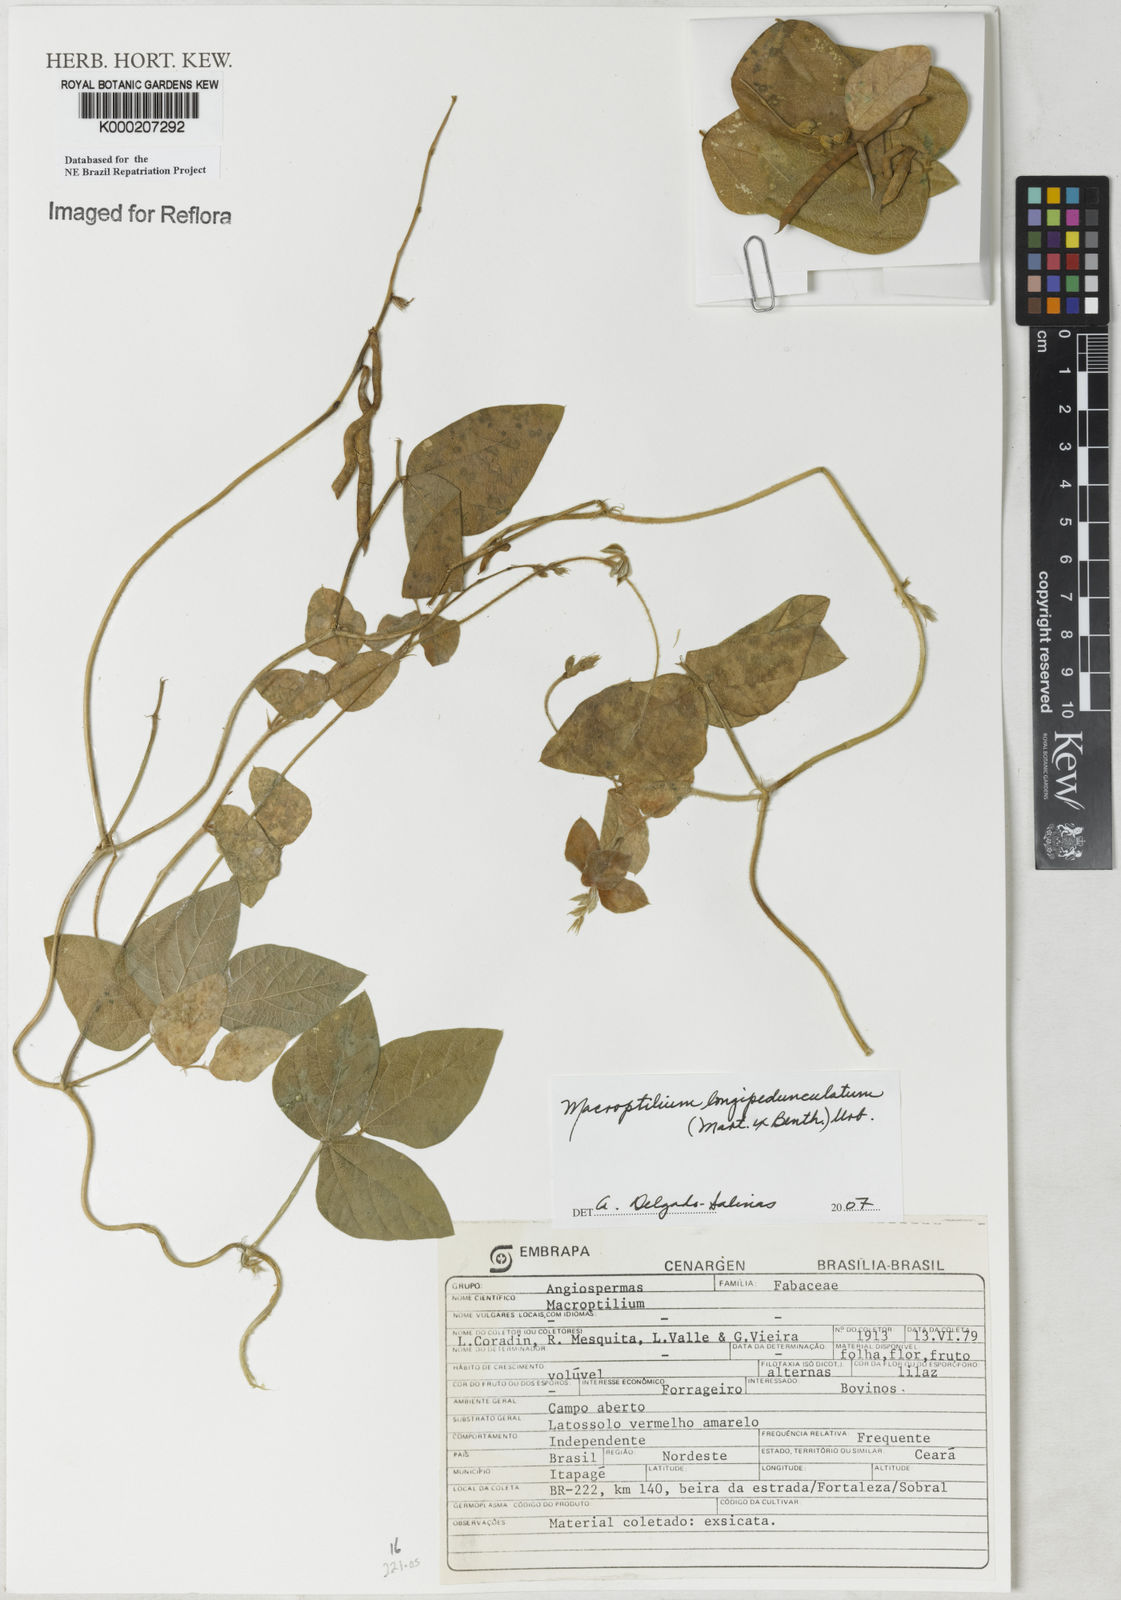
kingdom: Plantae
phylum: Tracheophyta
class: Magnoliopsida
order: Fabales
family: Fabaceae
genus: Macroptilium
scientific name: Macroptilium
